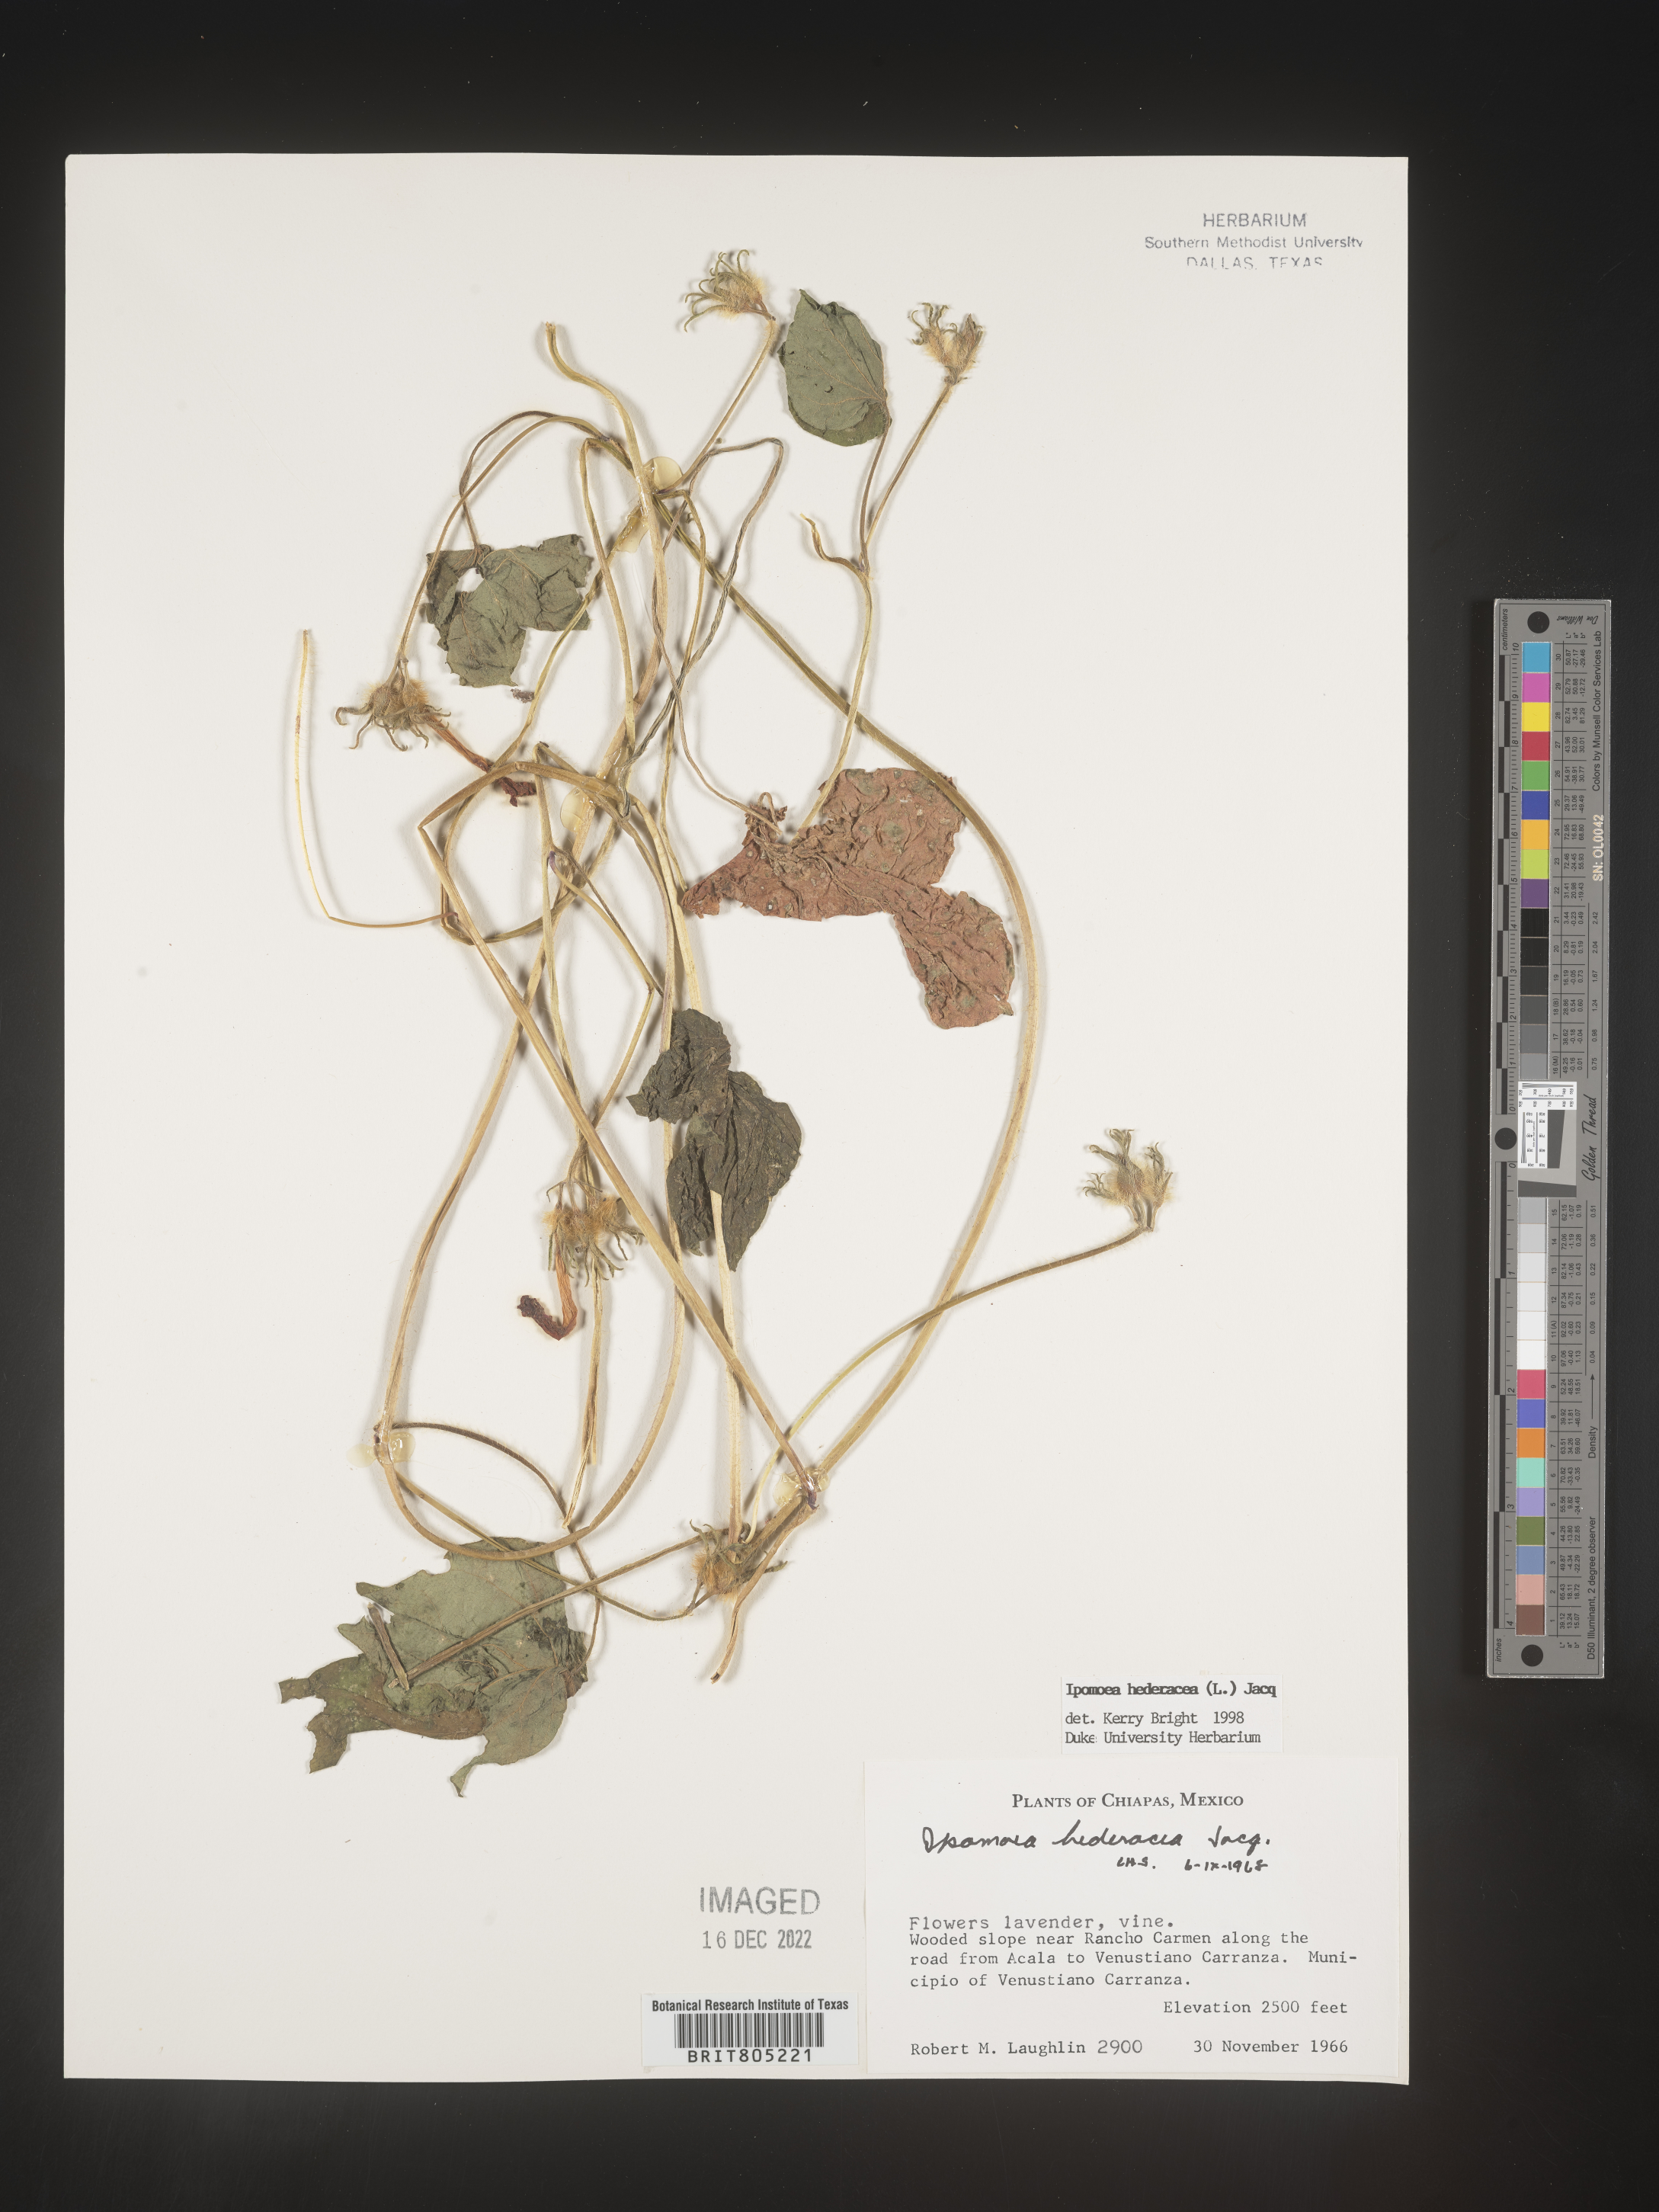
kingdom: Plantae
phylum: Tracheophyta
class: Magnoliopsida
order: Solanales
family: Convolvulaceae
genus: Ipomoea
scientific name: Ipomoea
